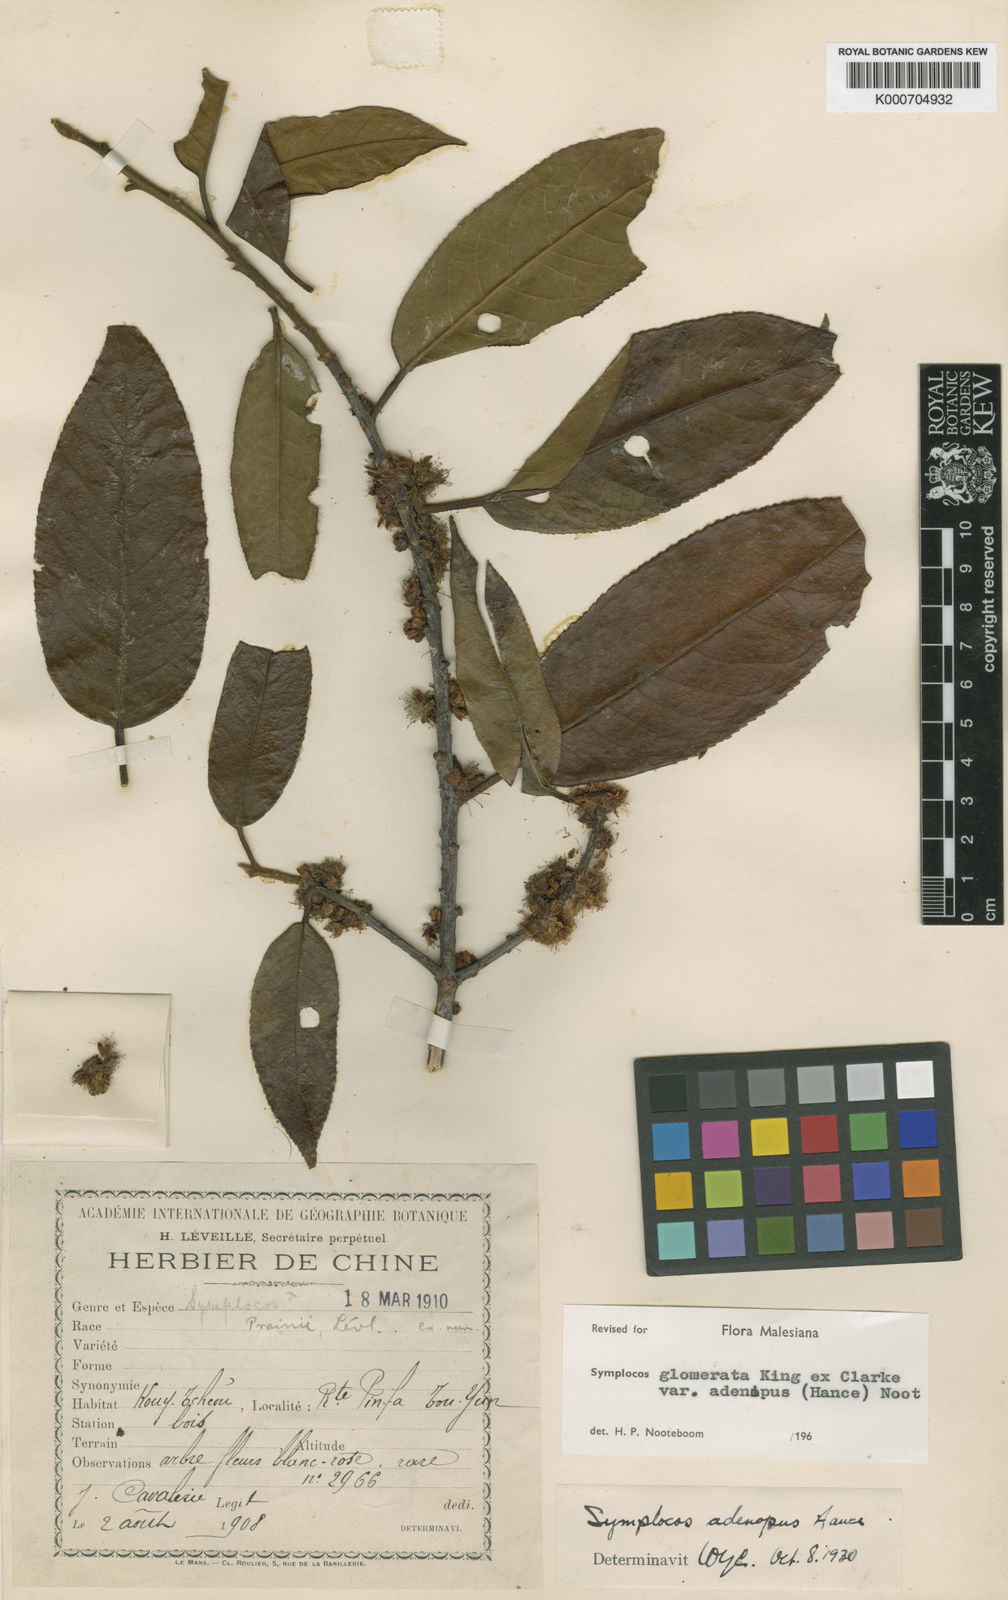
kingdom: Plantae
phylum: Tracheophyta
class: Magnoliopsida
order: Ericales
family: Symplocaceae
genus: Symplocos
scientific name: Symplocos glomerata
